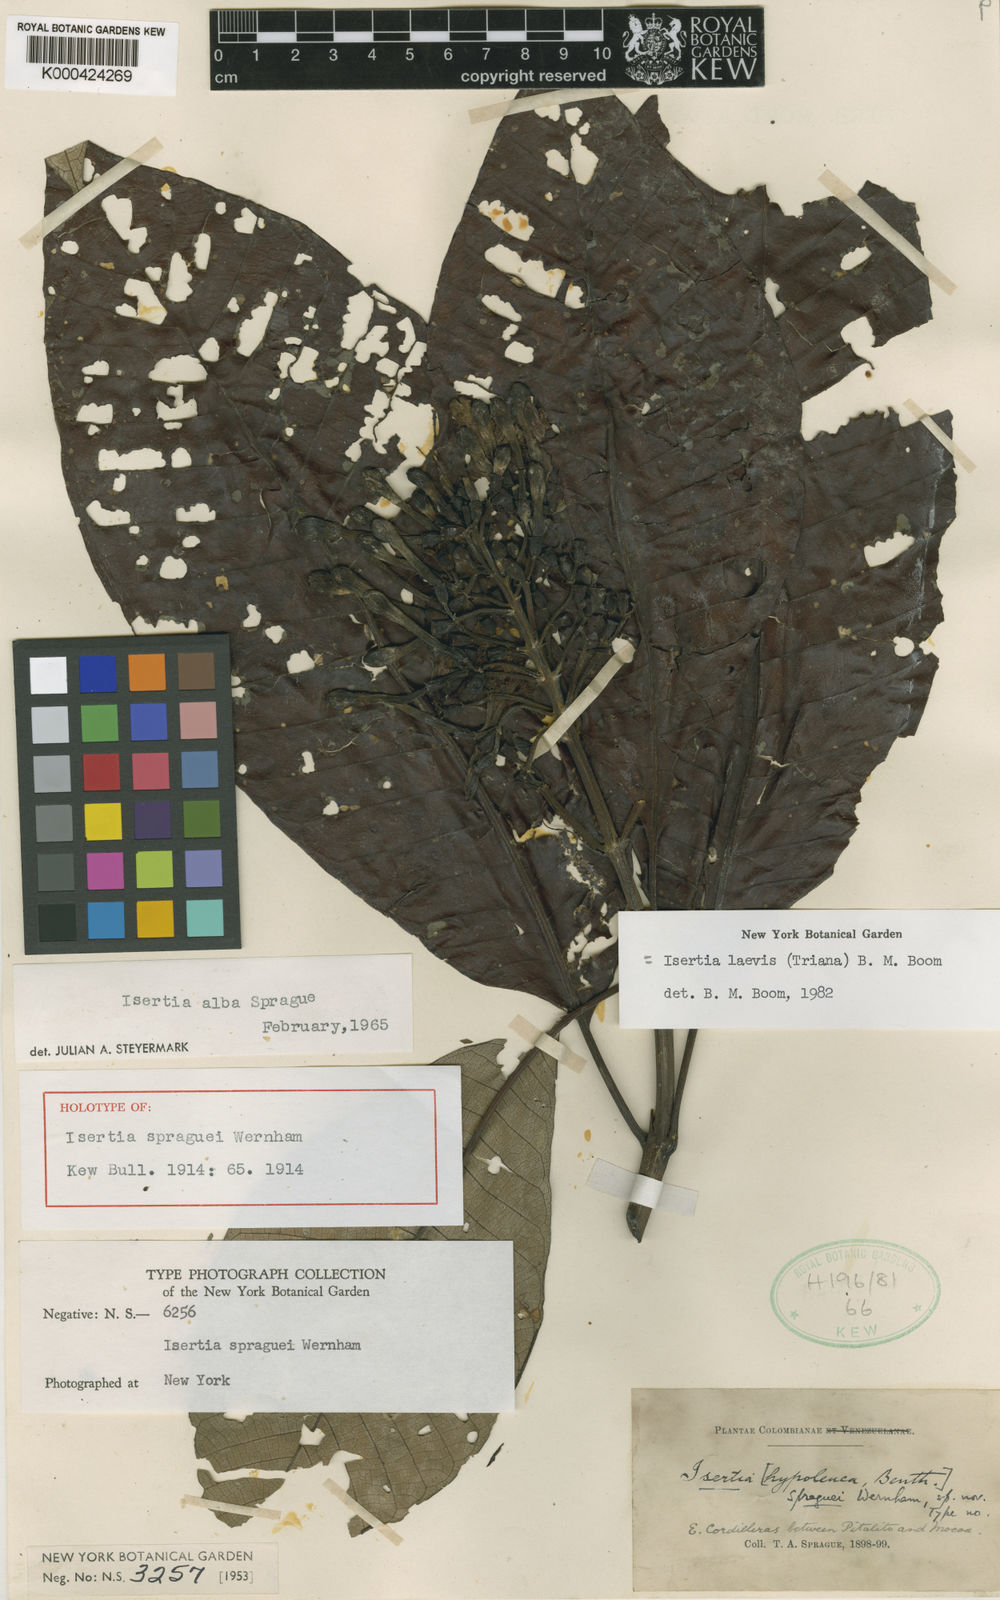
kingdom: Plantae
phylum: Tracheophyta
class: Magnoliopsida
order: Gentianales
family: Rubiaceae
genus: Isertia
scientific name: Isertia laevis
